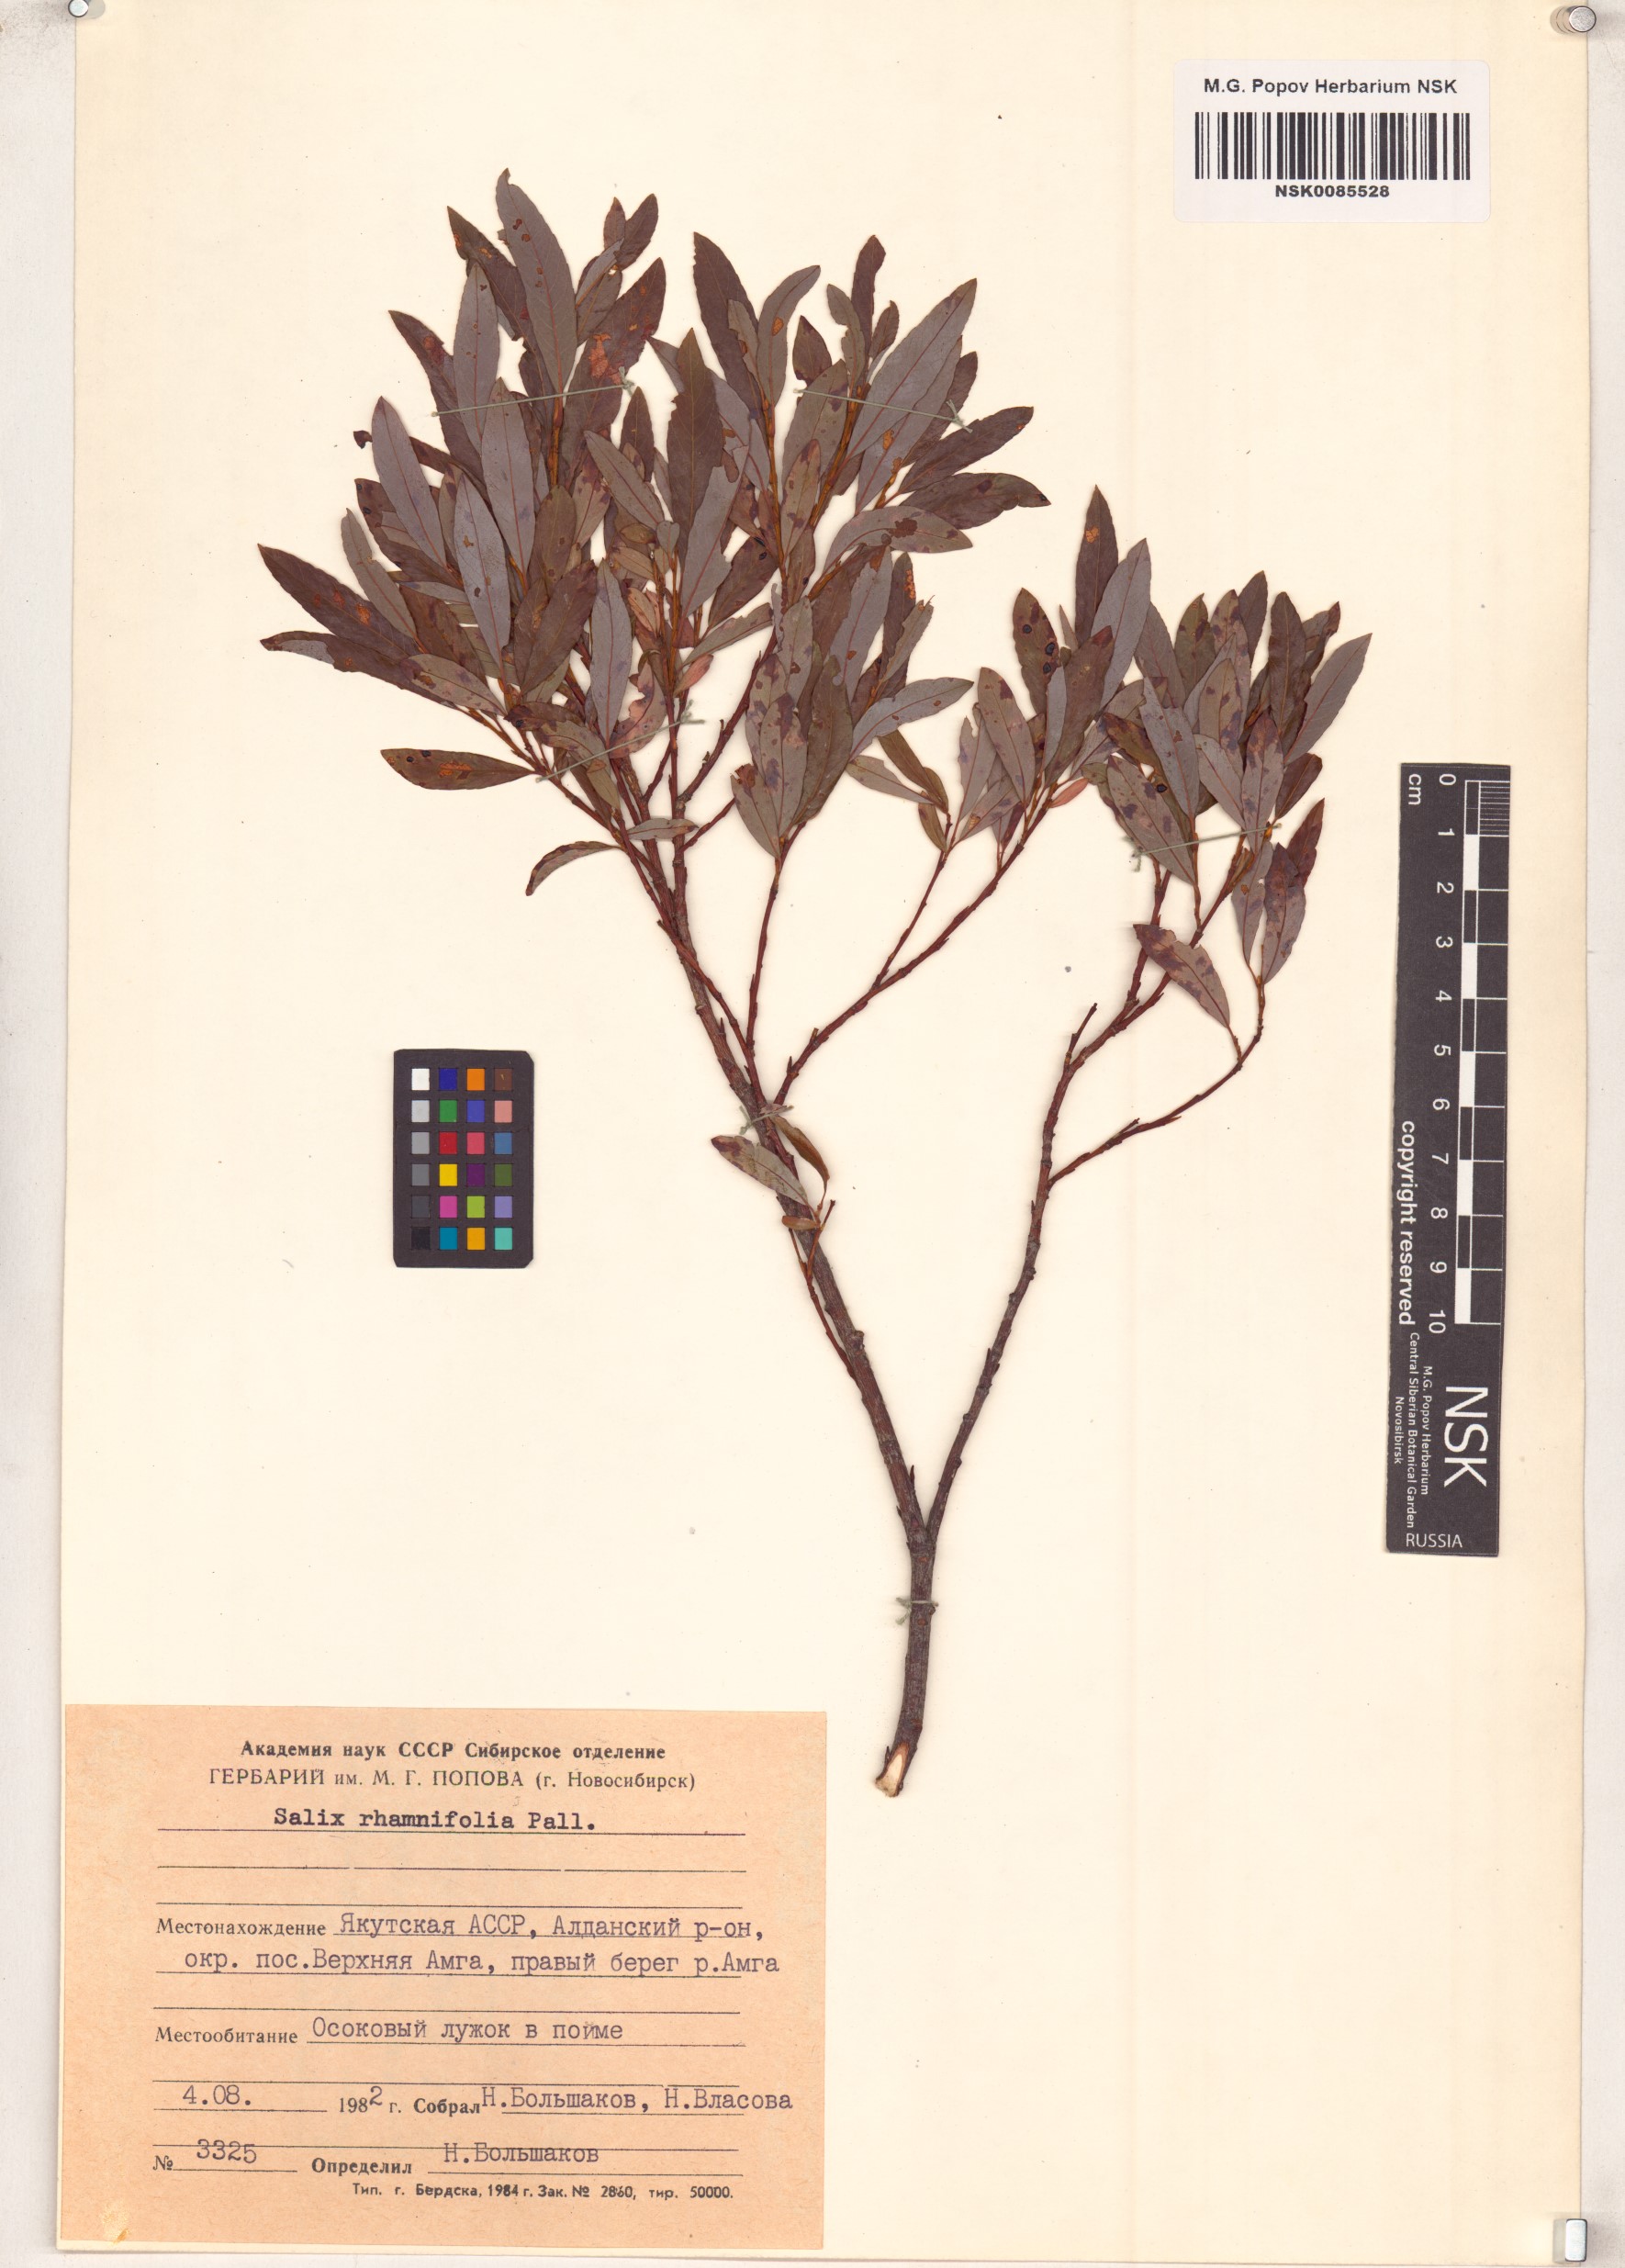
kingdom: Plantae
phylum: Tracheophyta
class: Magnoliopsida
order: Malpighiales
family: Salicaceae
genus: Salix
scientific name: Salix rhamnifolia
